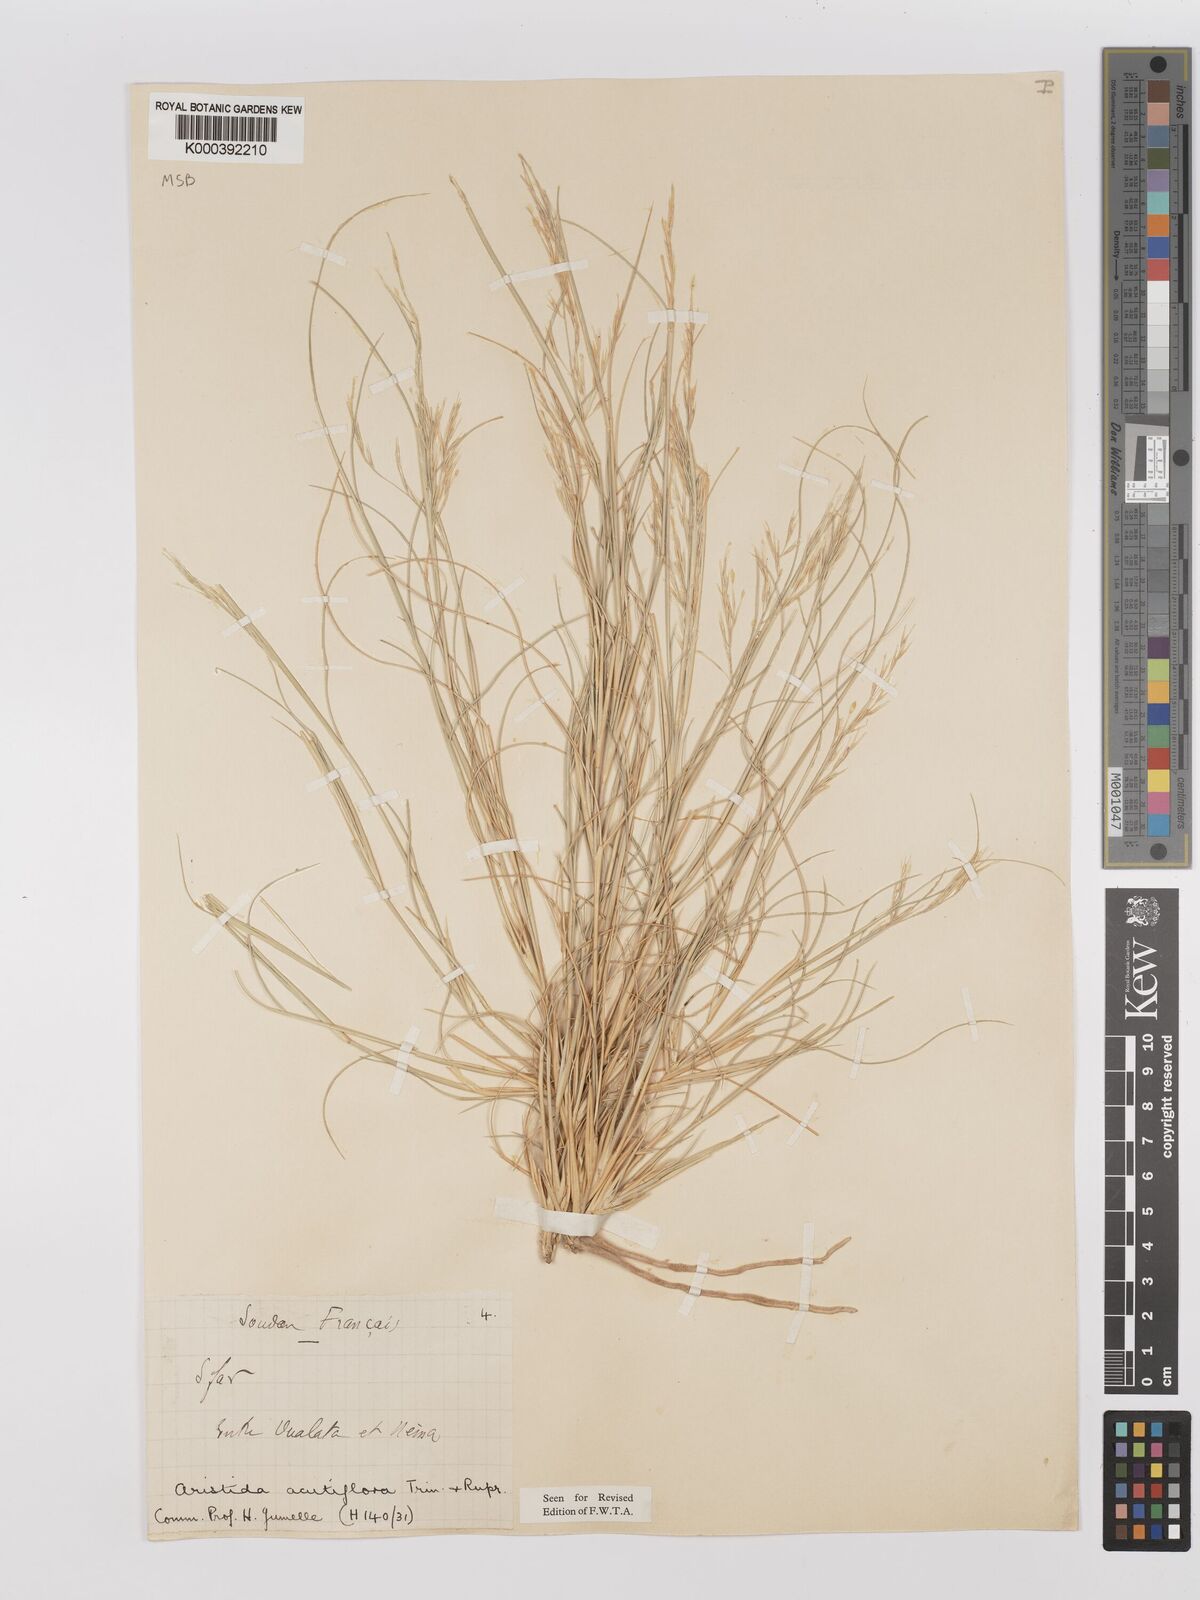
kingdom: Plantae
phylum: Tracheophyta
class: Liliopsida
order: Poales
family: Poaceae
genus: Stipagrostis
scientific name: Stipagrostis acutiflora
